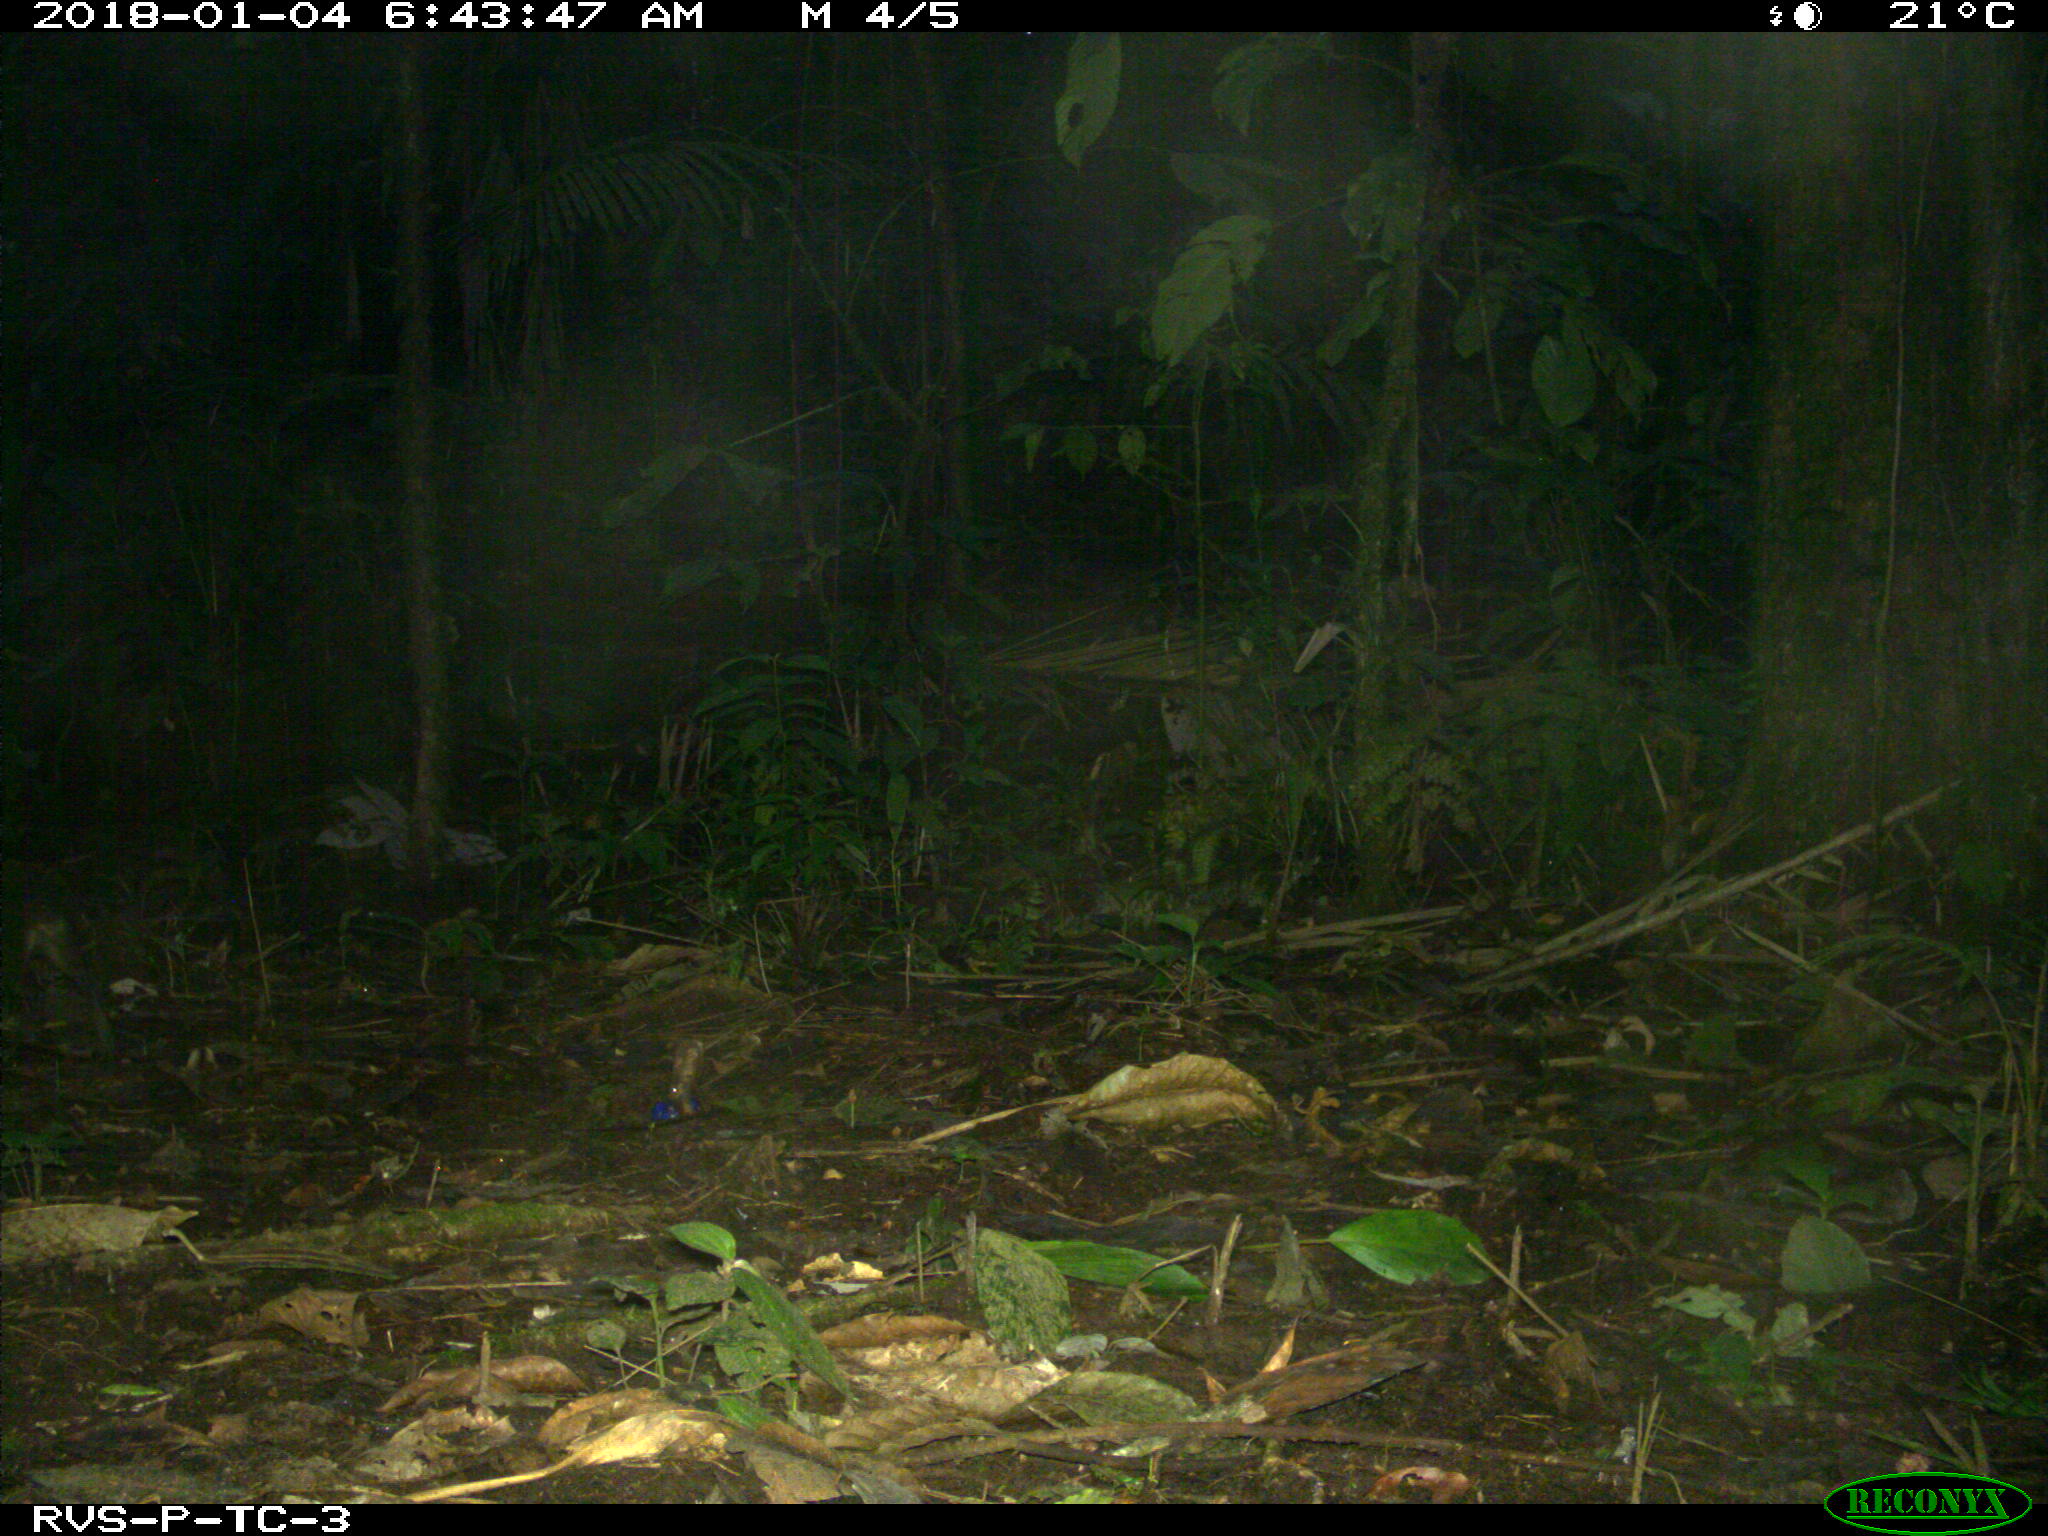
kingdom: Animalia
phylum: Chordata
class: Mammalia
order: Rodentia
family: Dasyproctidae
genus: Dasyprocta
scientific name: Dasyprocta punctata
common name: Central american agouti
